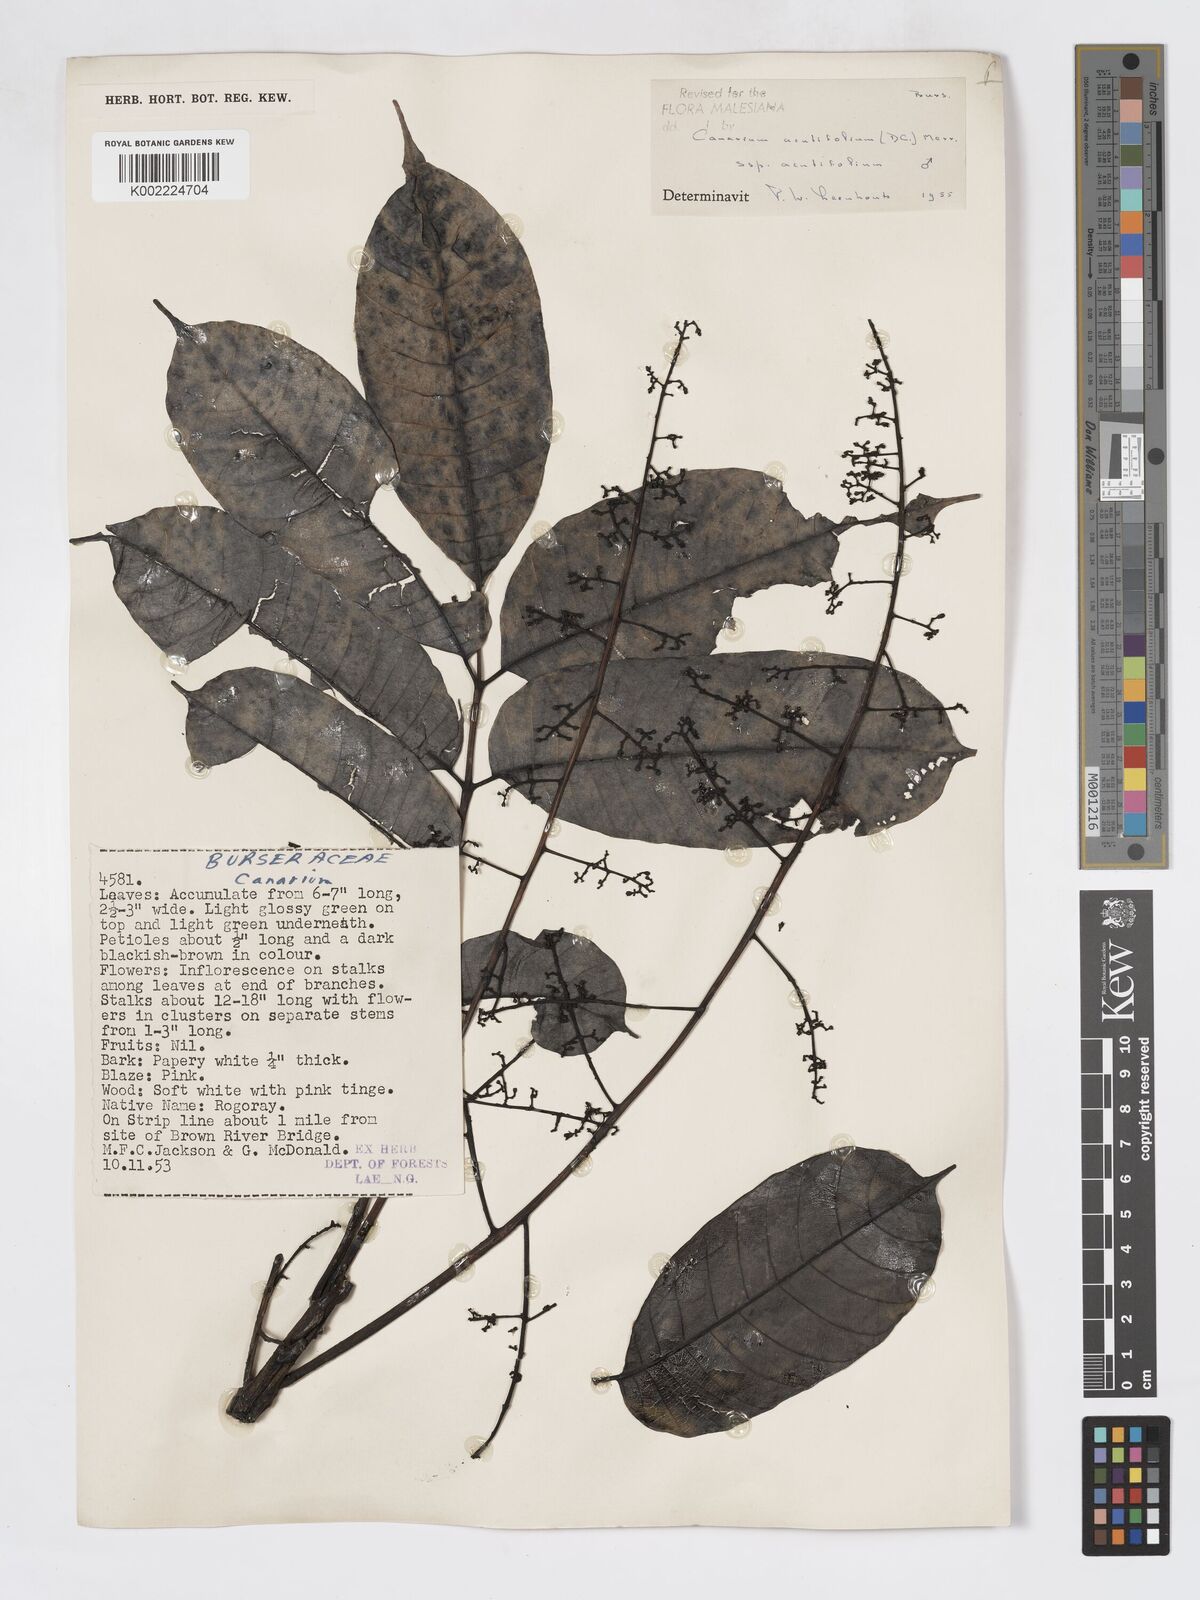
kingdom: Plantae
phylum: Tracheophyta
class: Magnoliopsida
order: Sapindales
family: Burseraceae
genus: Canarium
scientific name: Canarium acutifolium
